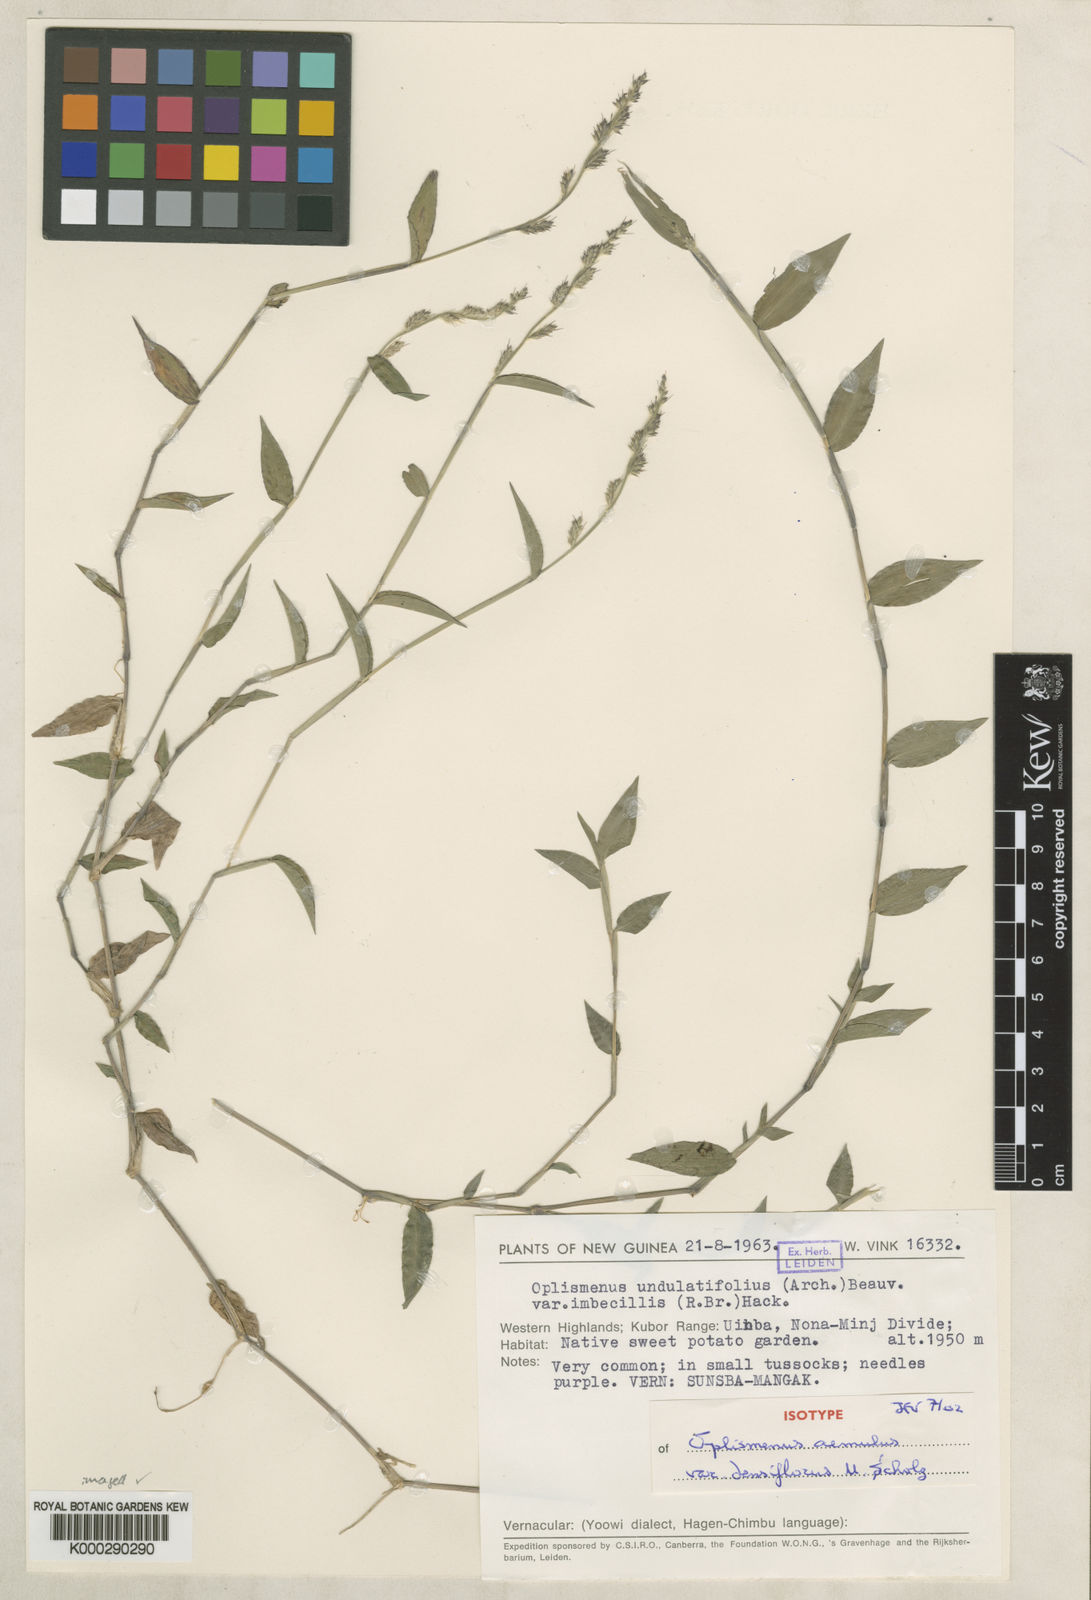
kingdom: Plantae
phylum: Tracheophyta
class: Liliopsida
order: Poales
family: Poaceae
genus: Oplismenus
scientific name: Oplismenus
